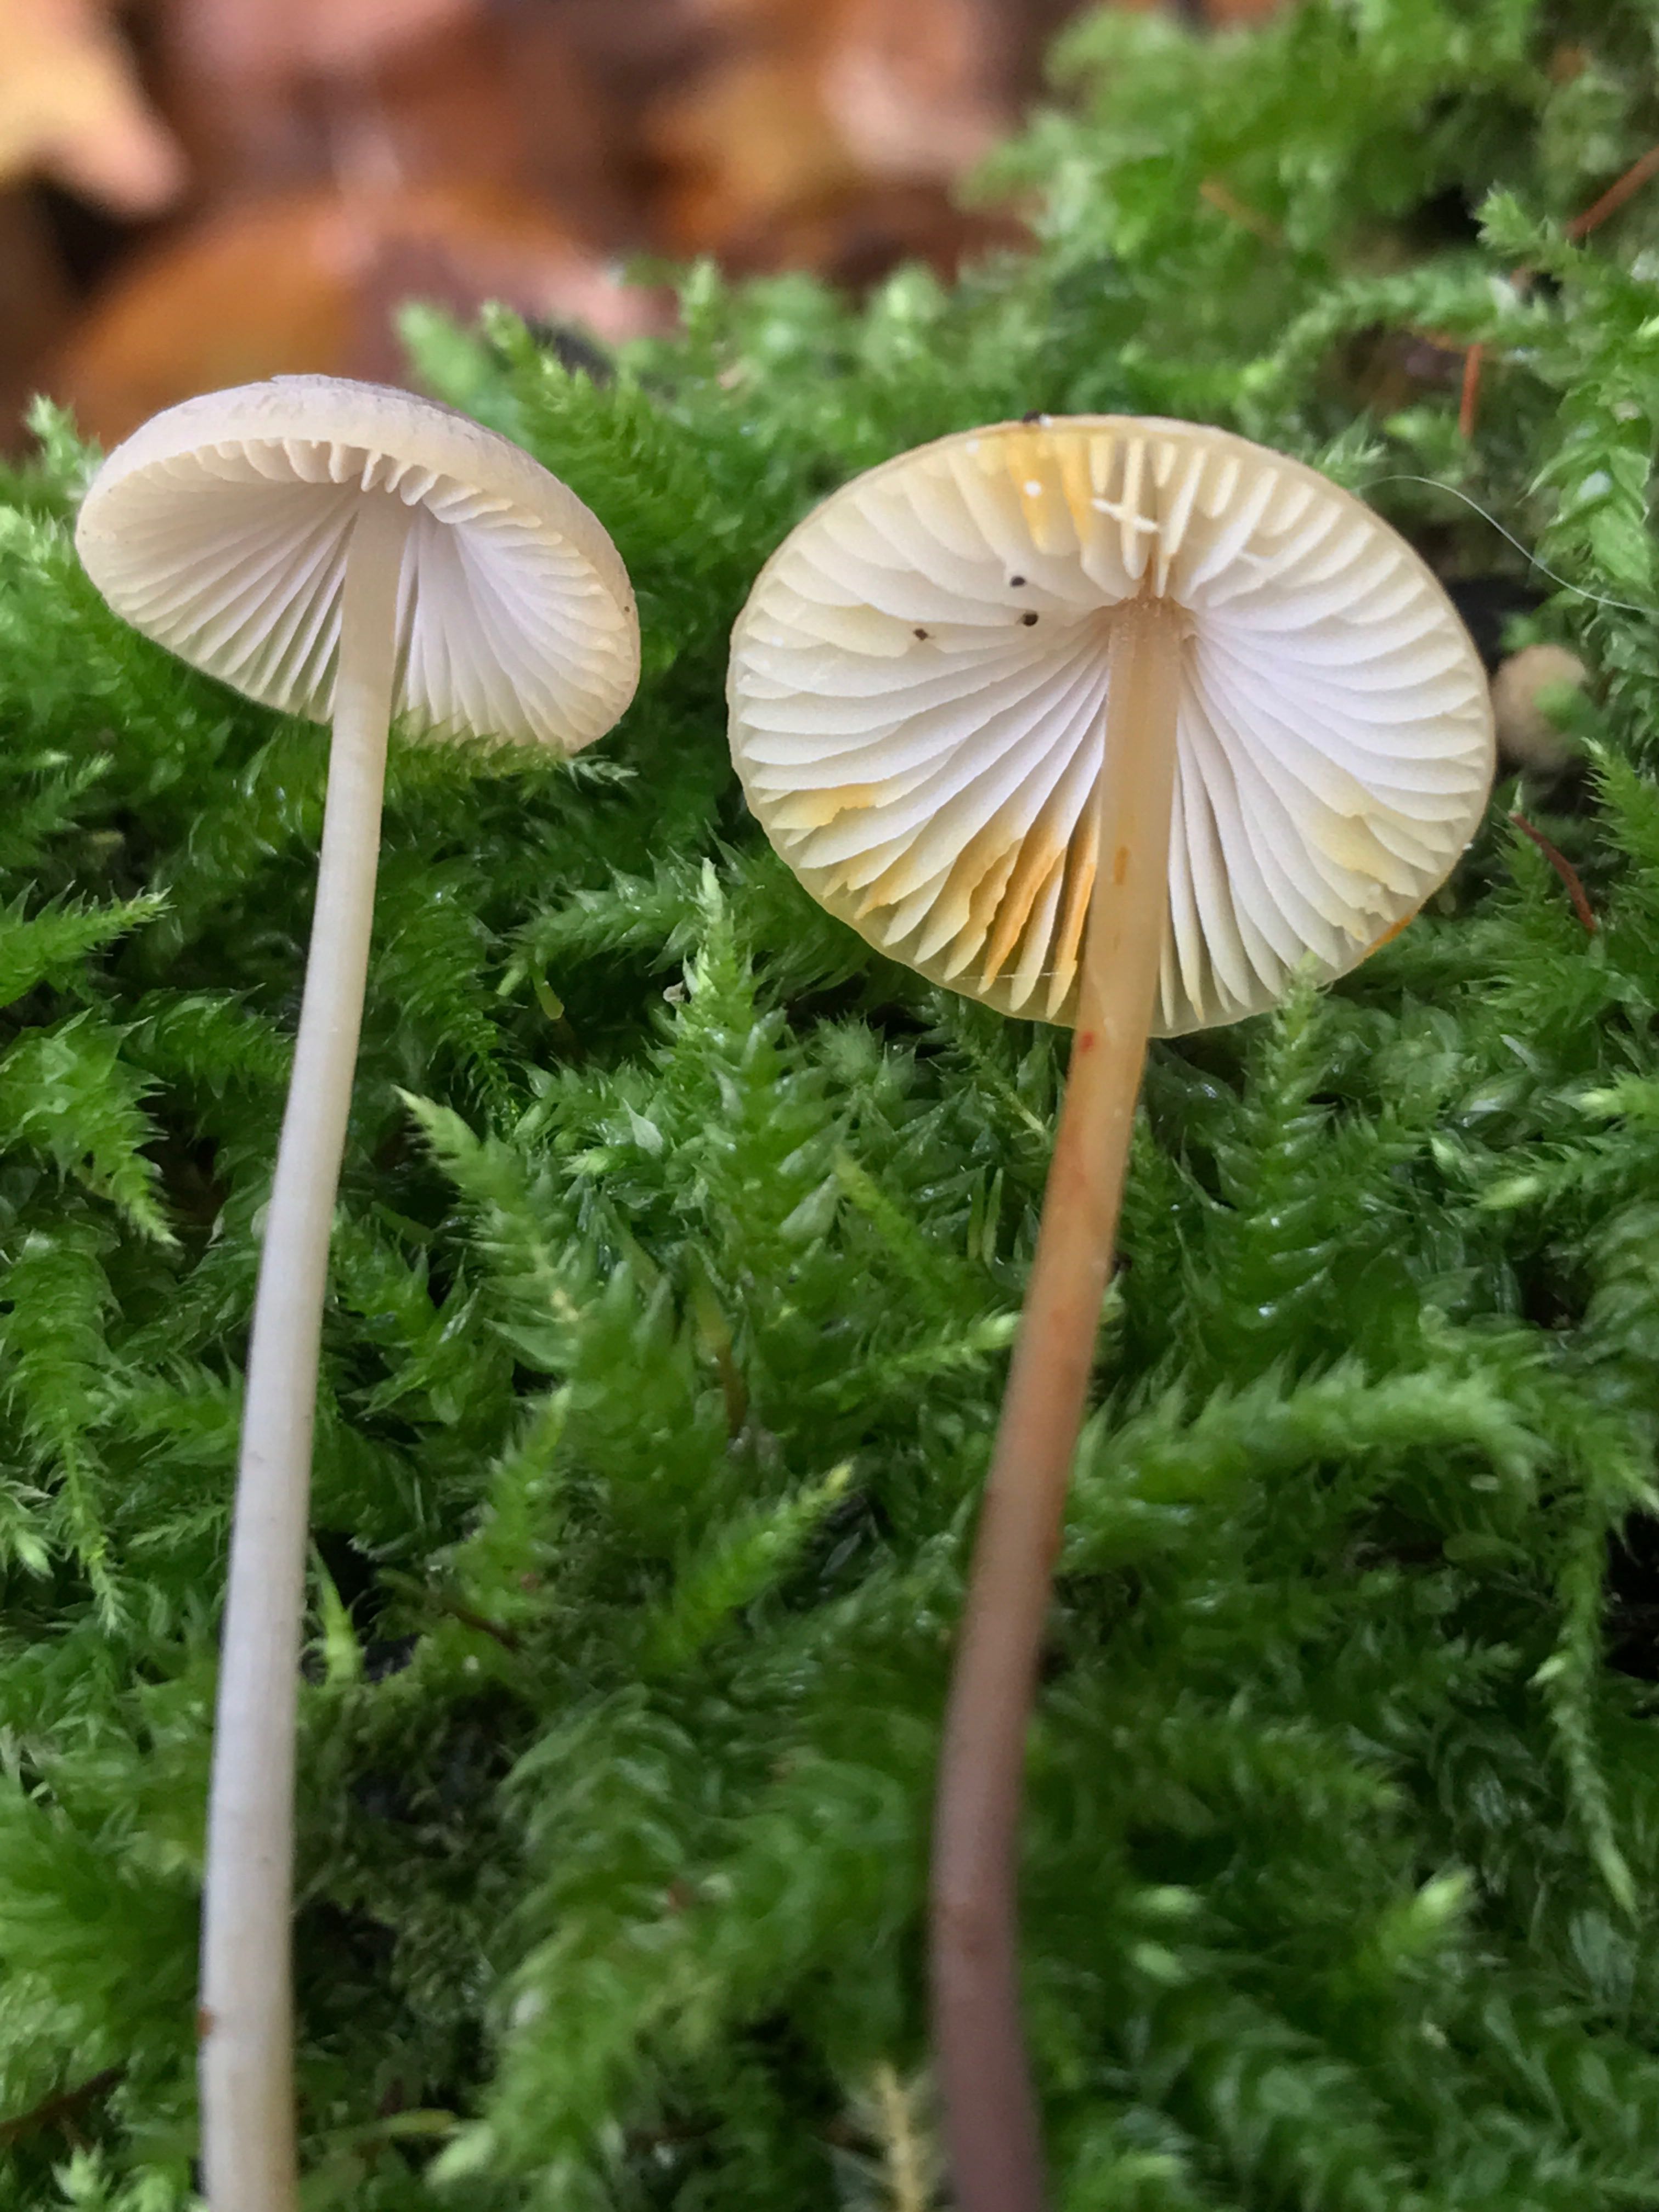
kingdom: Fungi
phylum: Basidiomycota
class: Agaricomycetes
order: Agaricales
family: Mycenaceae
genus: Mycena
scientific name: Mycena crocata
